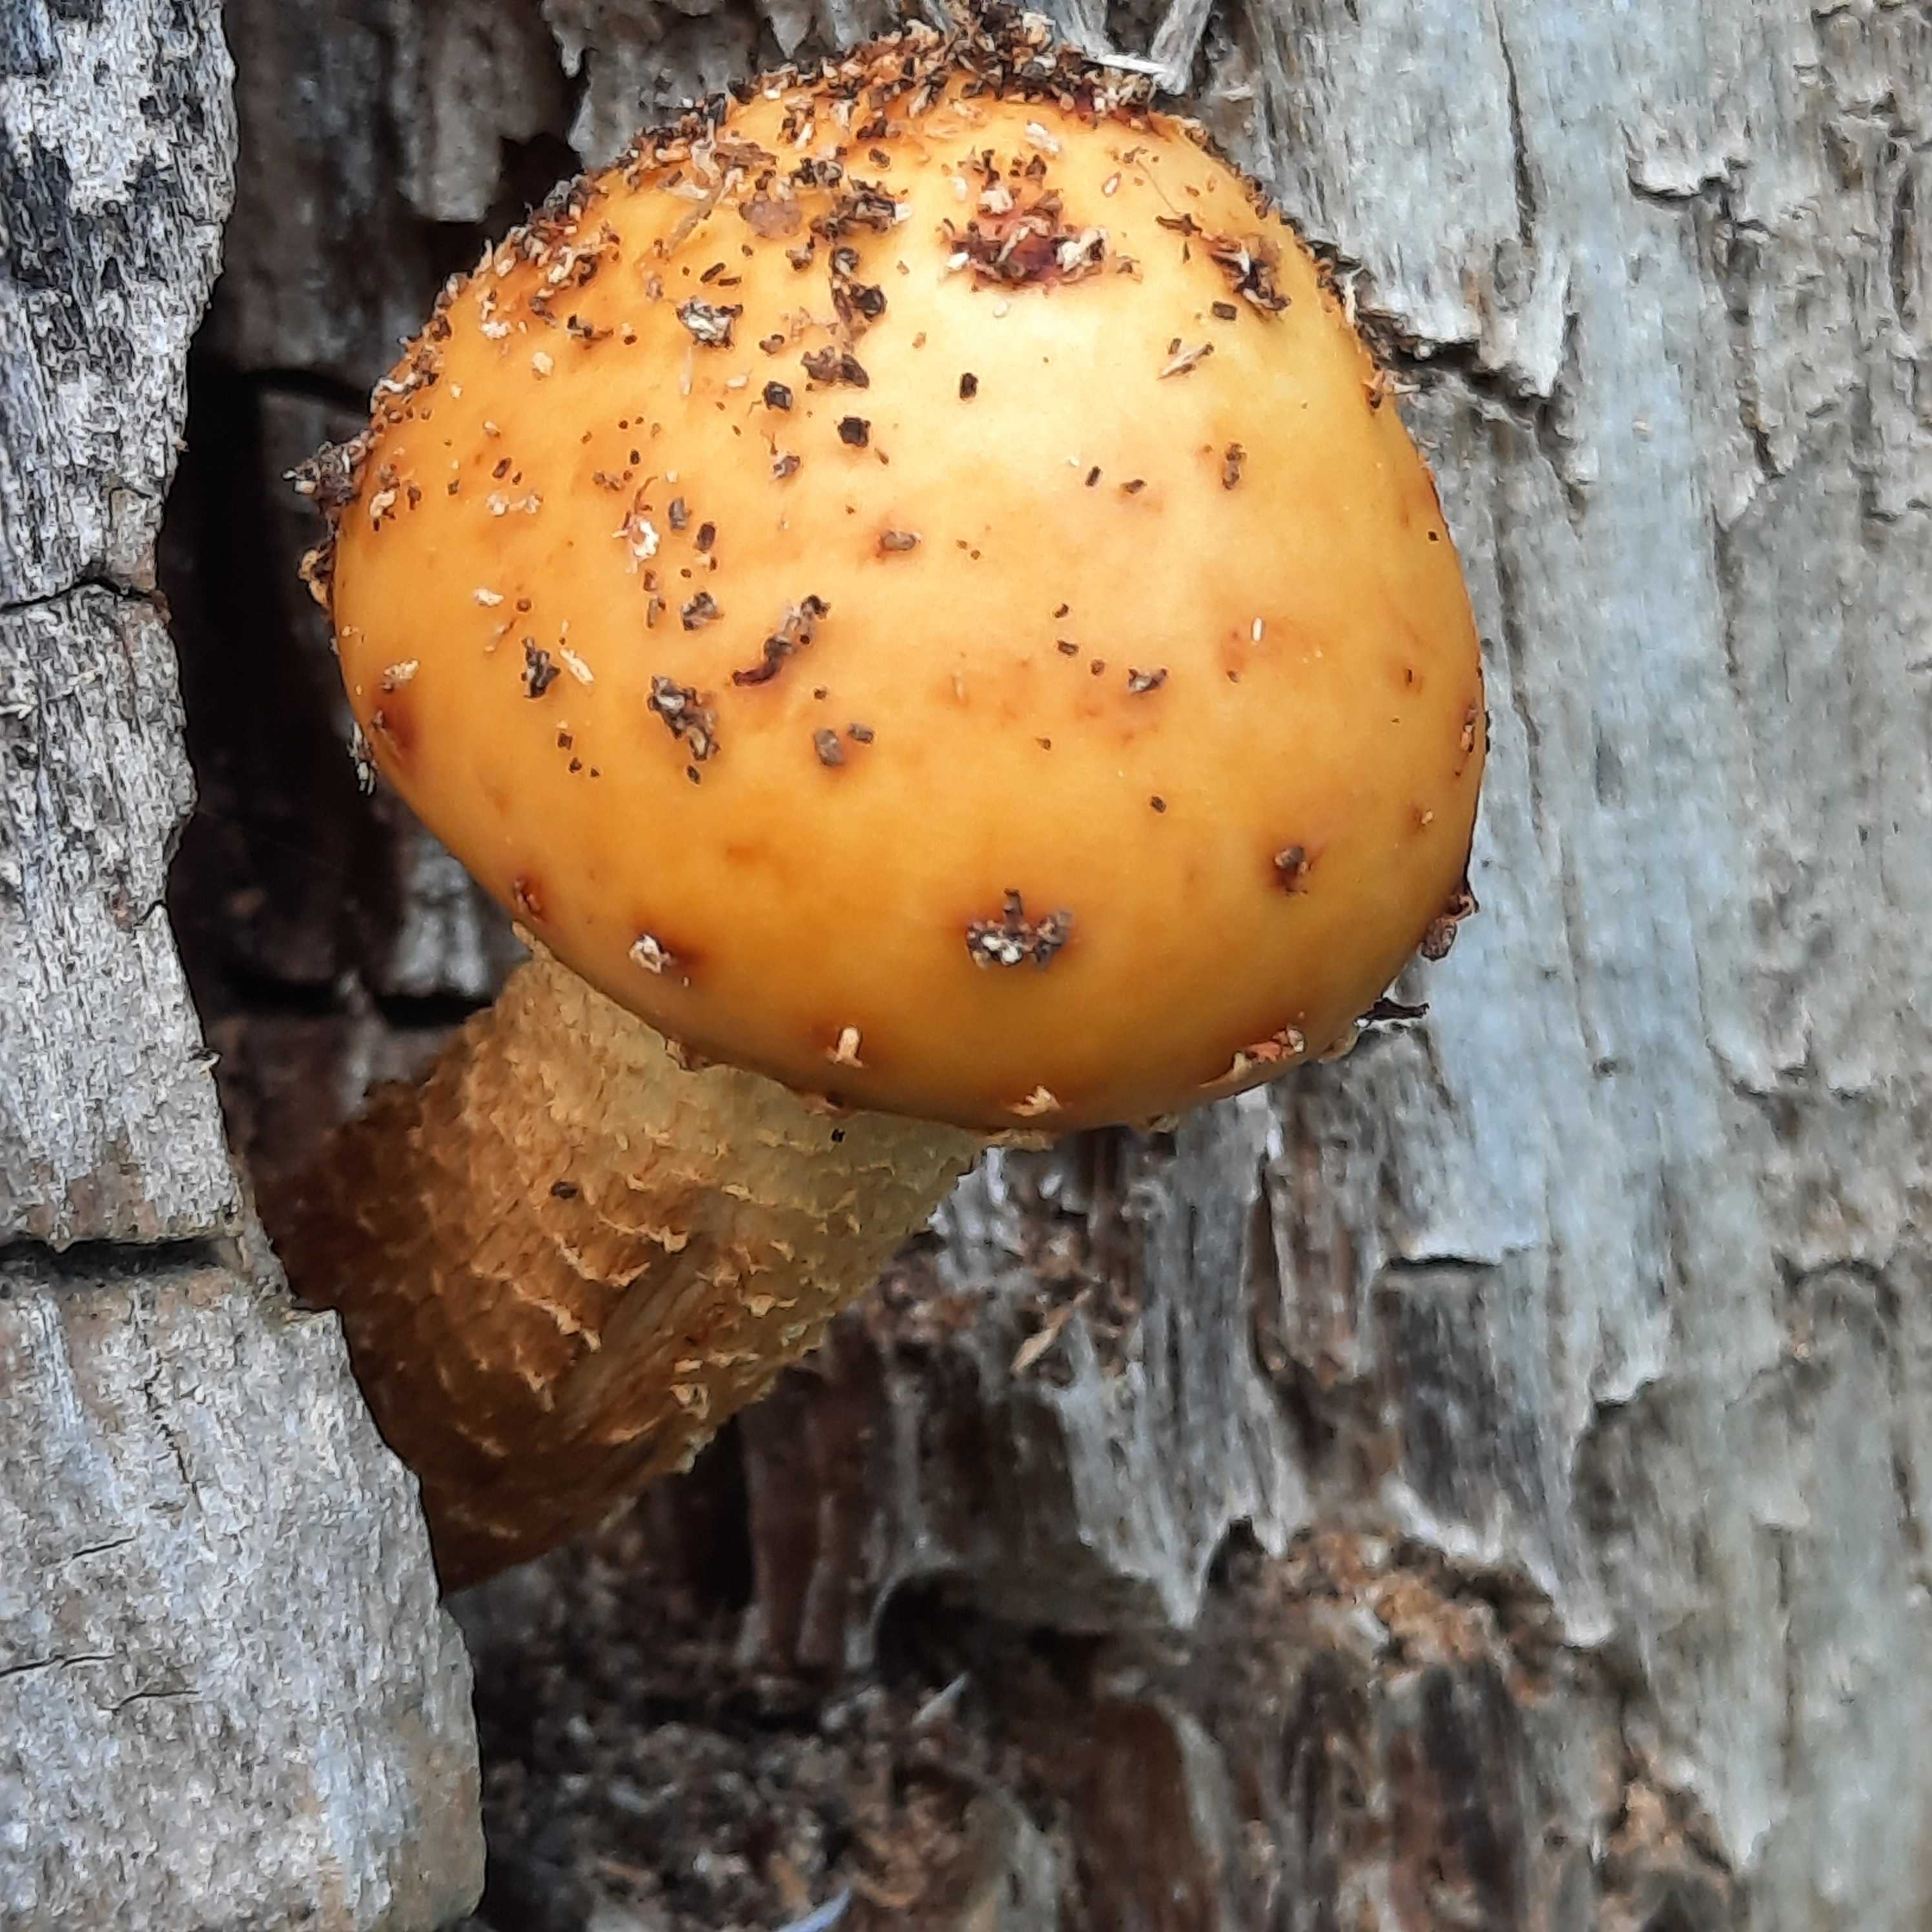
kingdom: Fungi
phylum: Basidiomycota
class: Agaricomycetes
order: Agaricales
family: Strophariaceae
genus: Pholiota
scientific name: Pholiota
